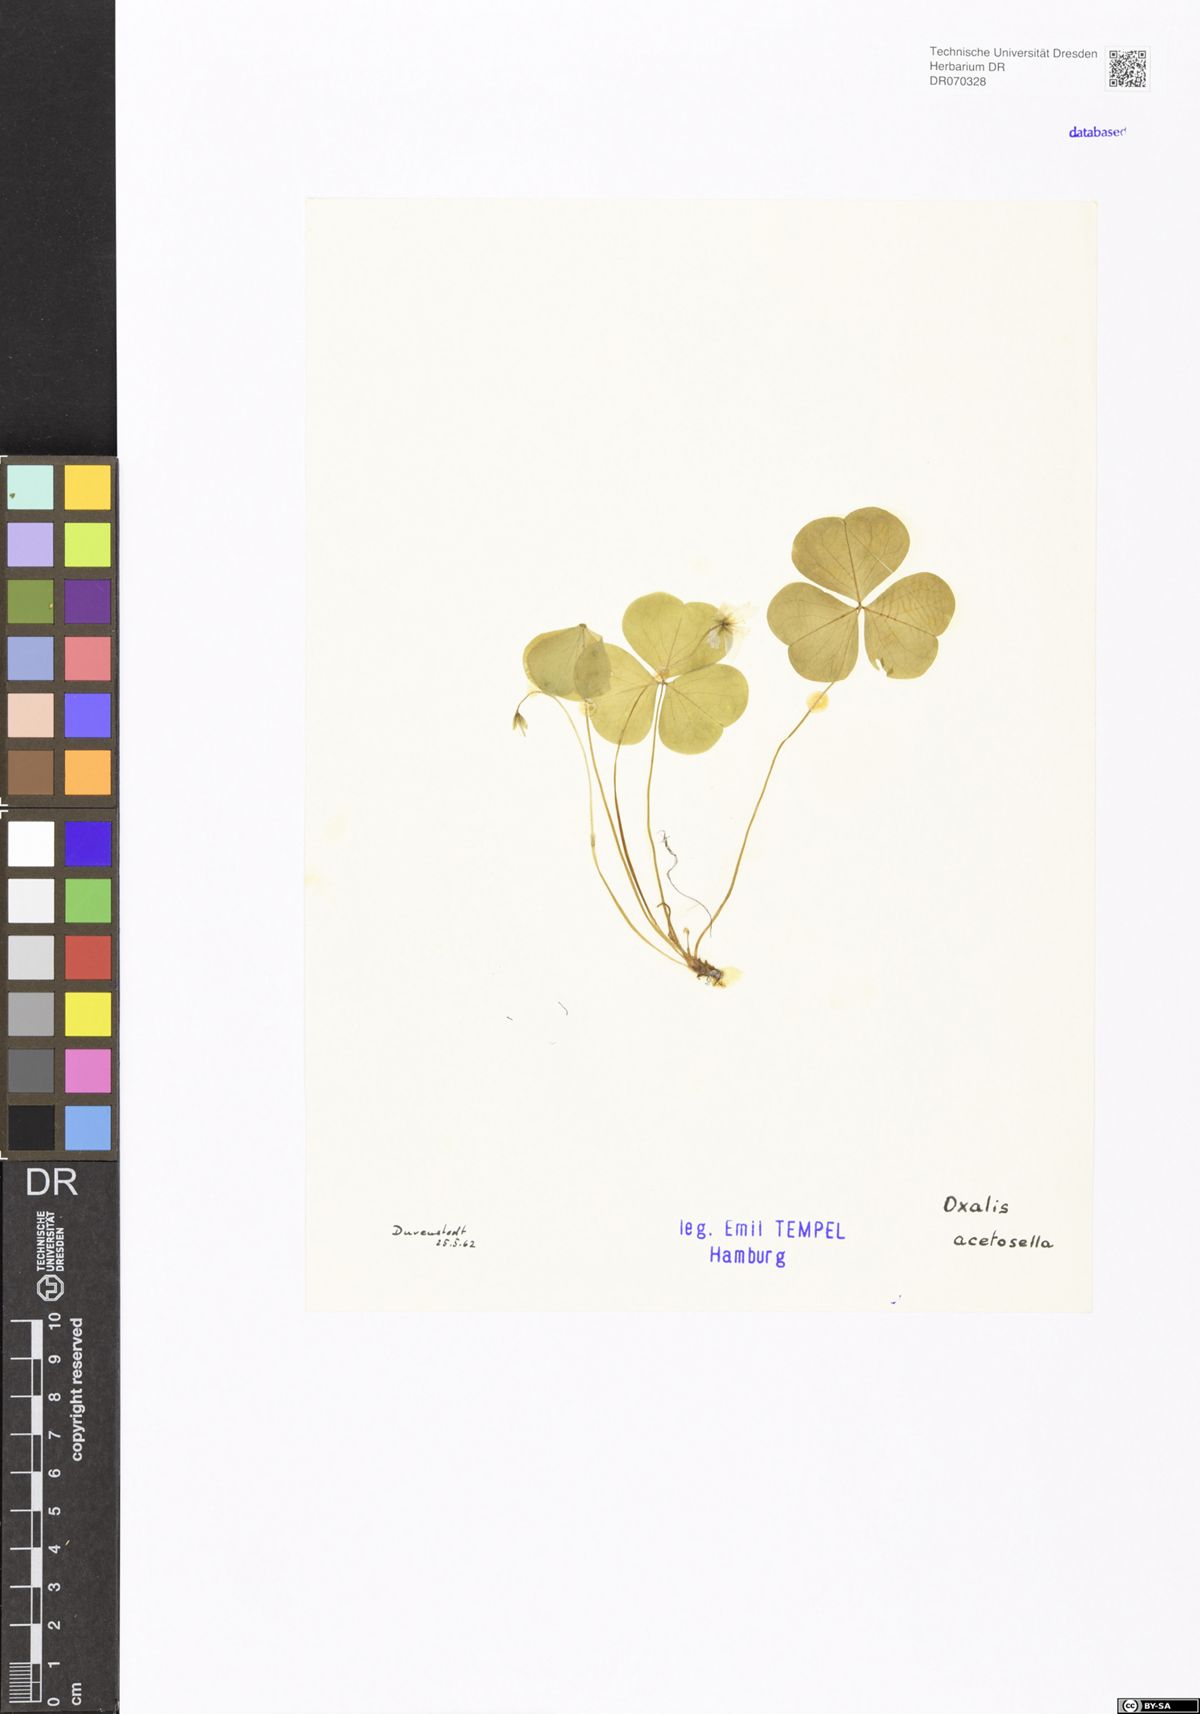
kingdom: Plantae
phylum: Tracheophyta
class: Magnoliopsida
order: Oxalidales
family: Oxalidaceae
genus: Oxalis
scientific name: Oxalis acetosella
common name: Wood-sorrel
